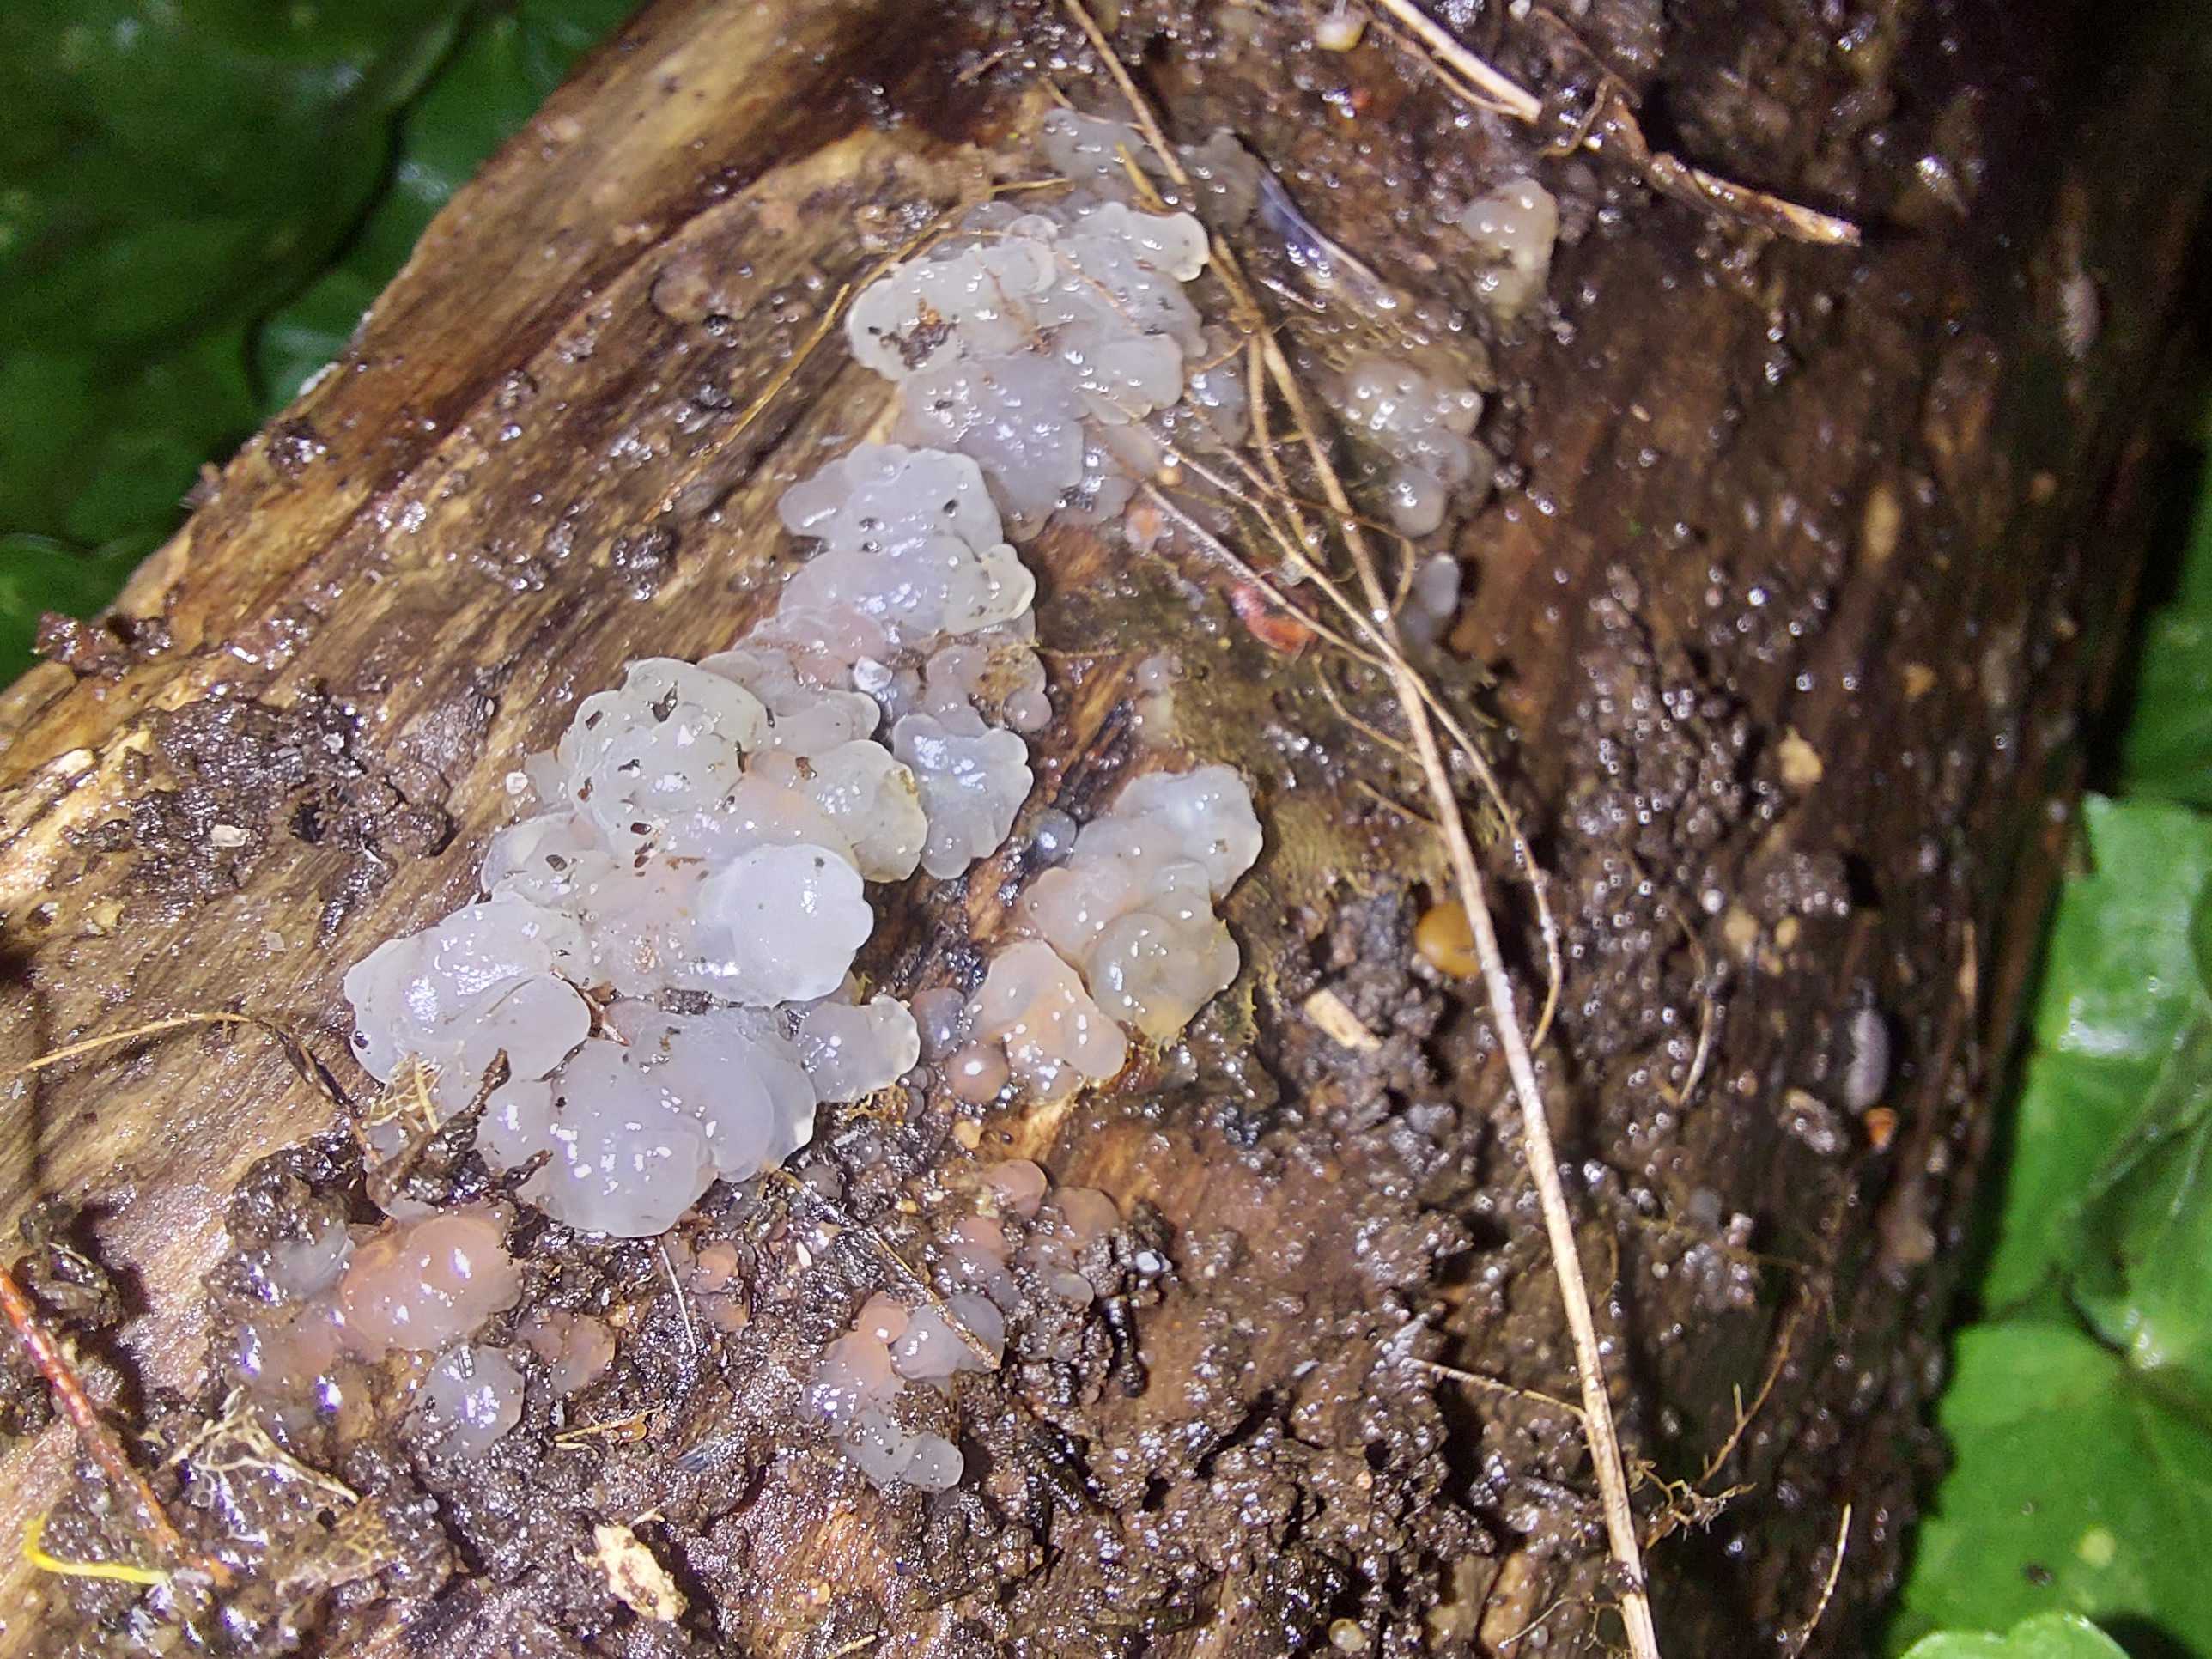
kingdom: Fungi
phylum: Basidiomycota
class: Agaricomycetes
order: Auriculariales
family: Hyaloriaceae
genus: Myxarium
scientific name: Myxarium
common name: bævretop
